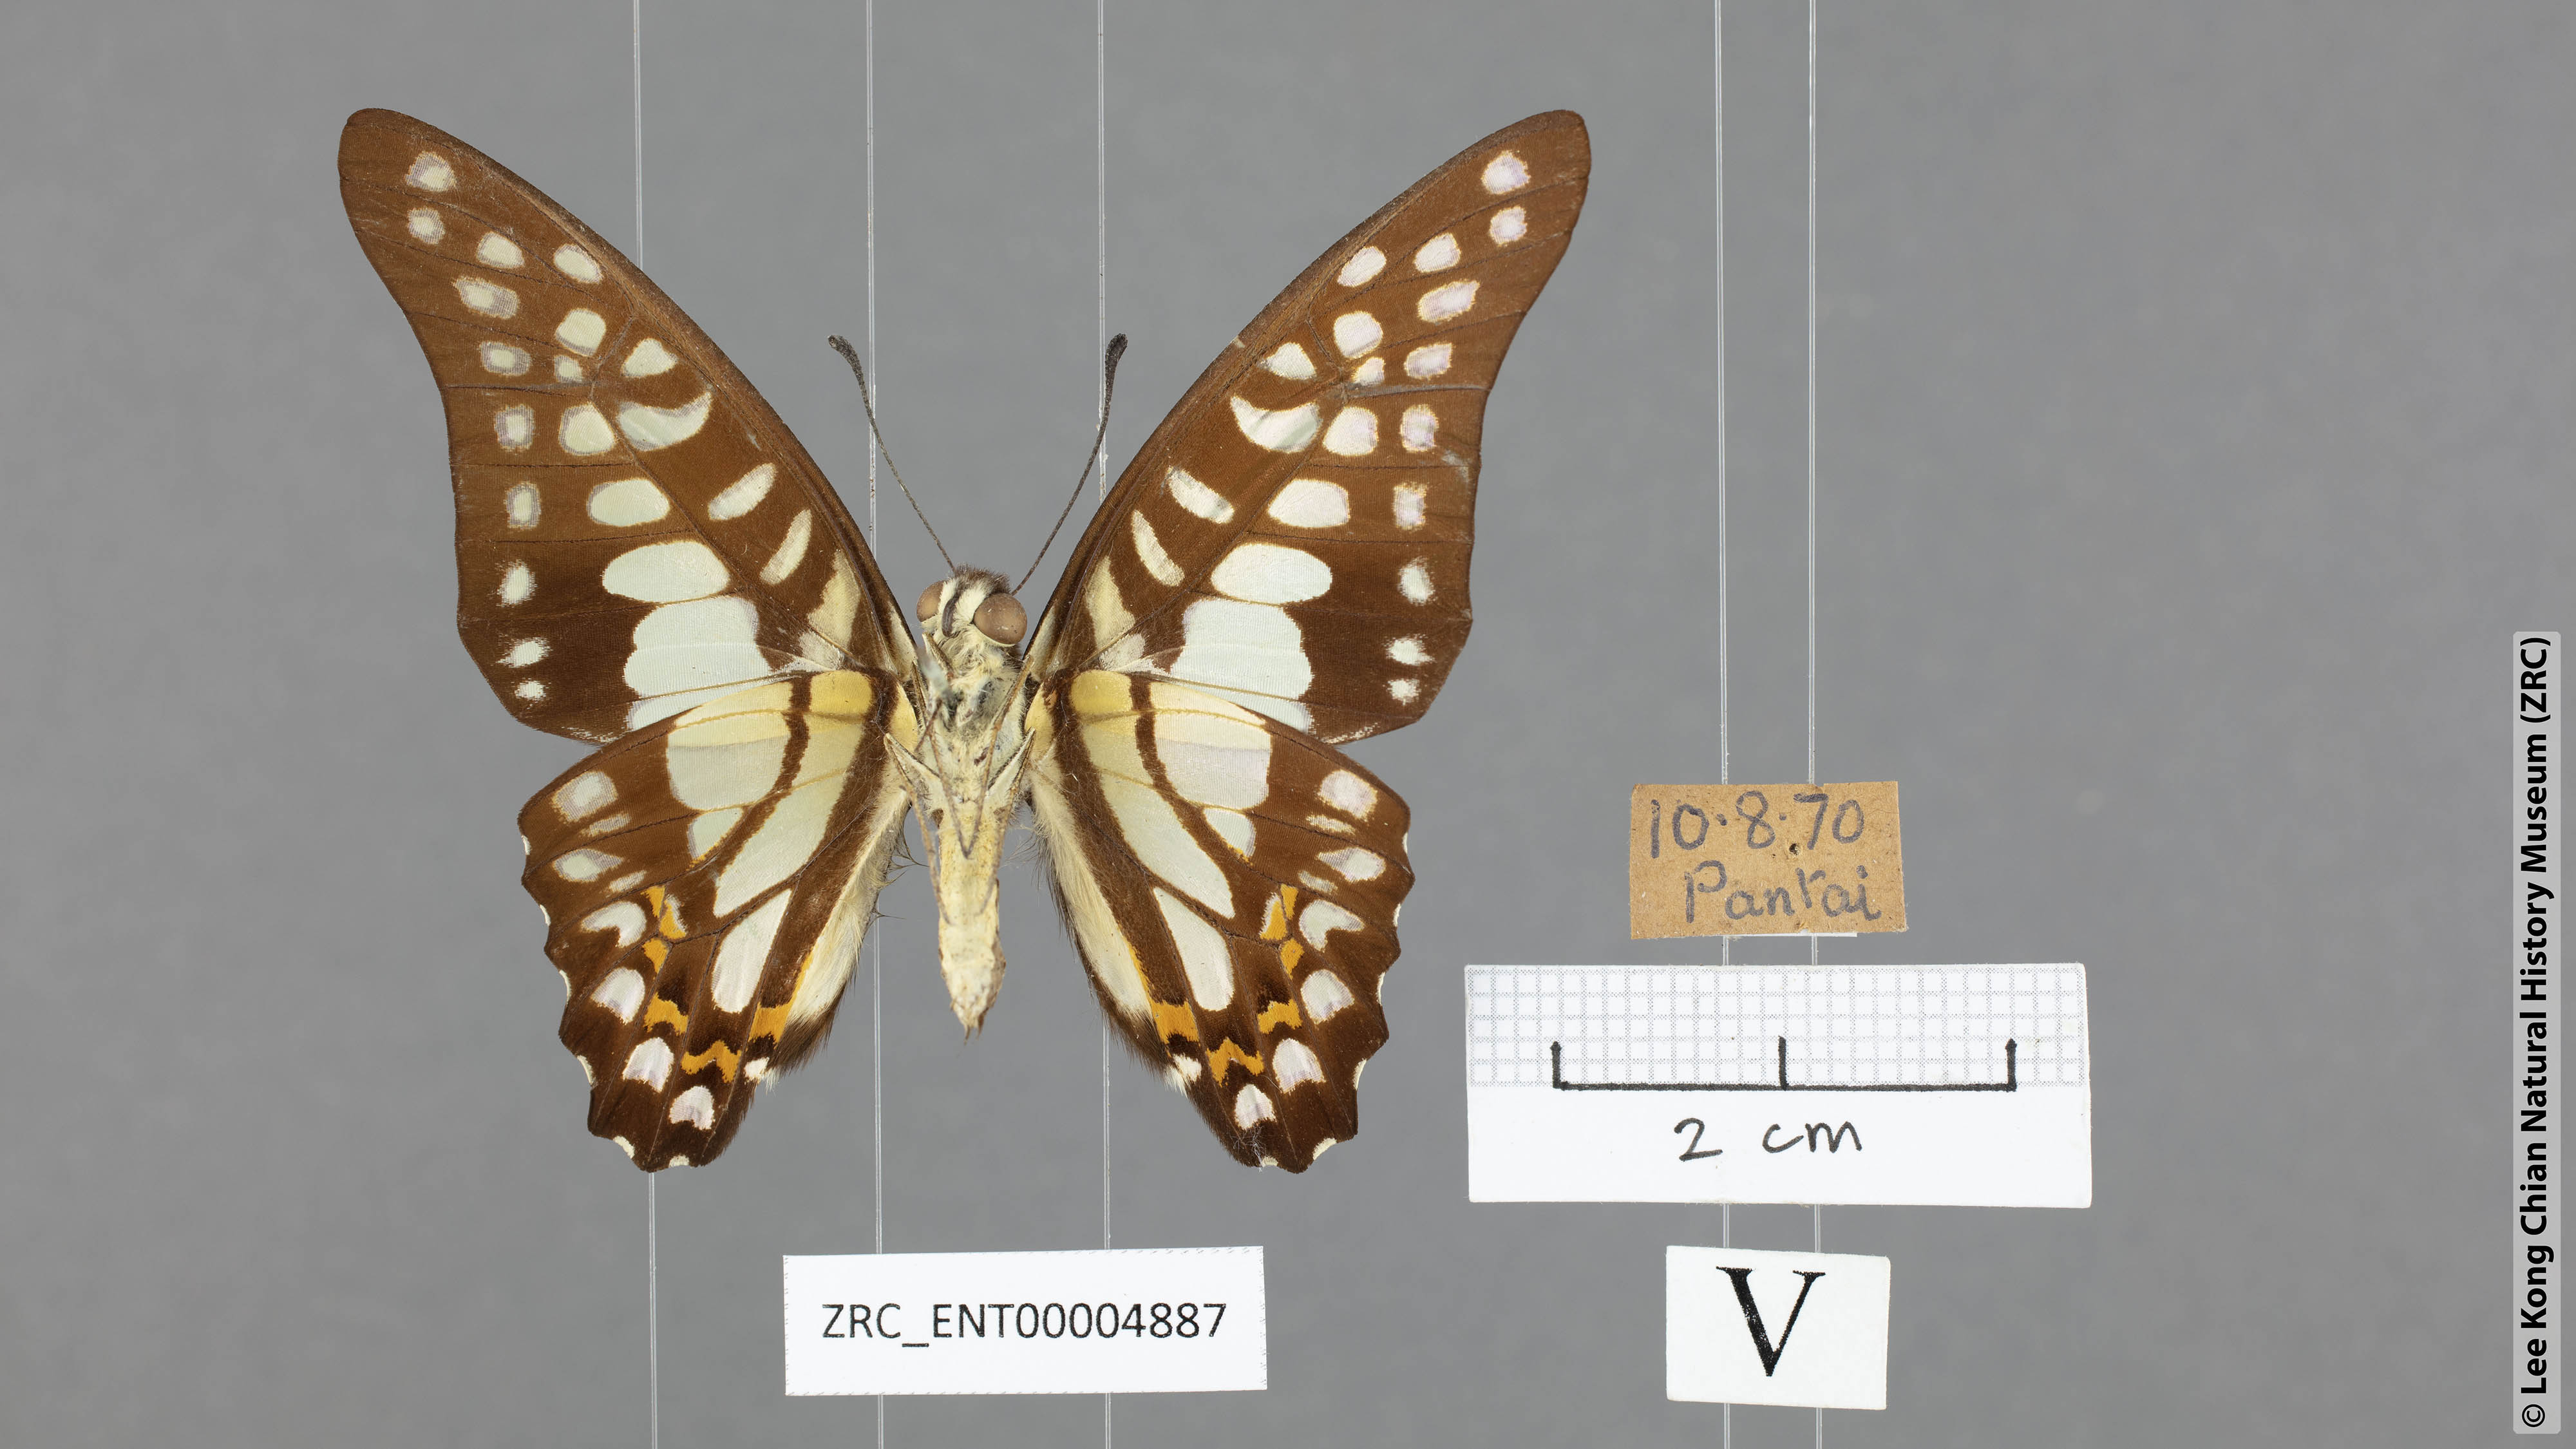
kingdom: Animalia
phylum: Arthropoda
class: Insecta
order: Lepidoptera
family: Papilionidae
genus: Graphium
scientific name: Graphium bathycles
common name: Veined jay
